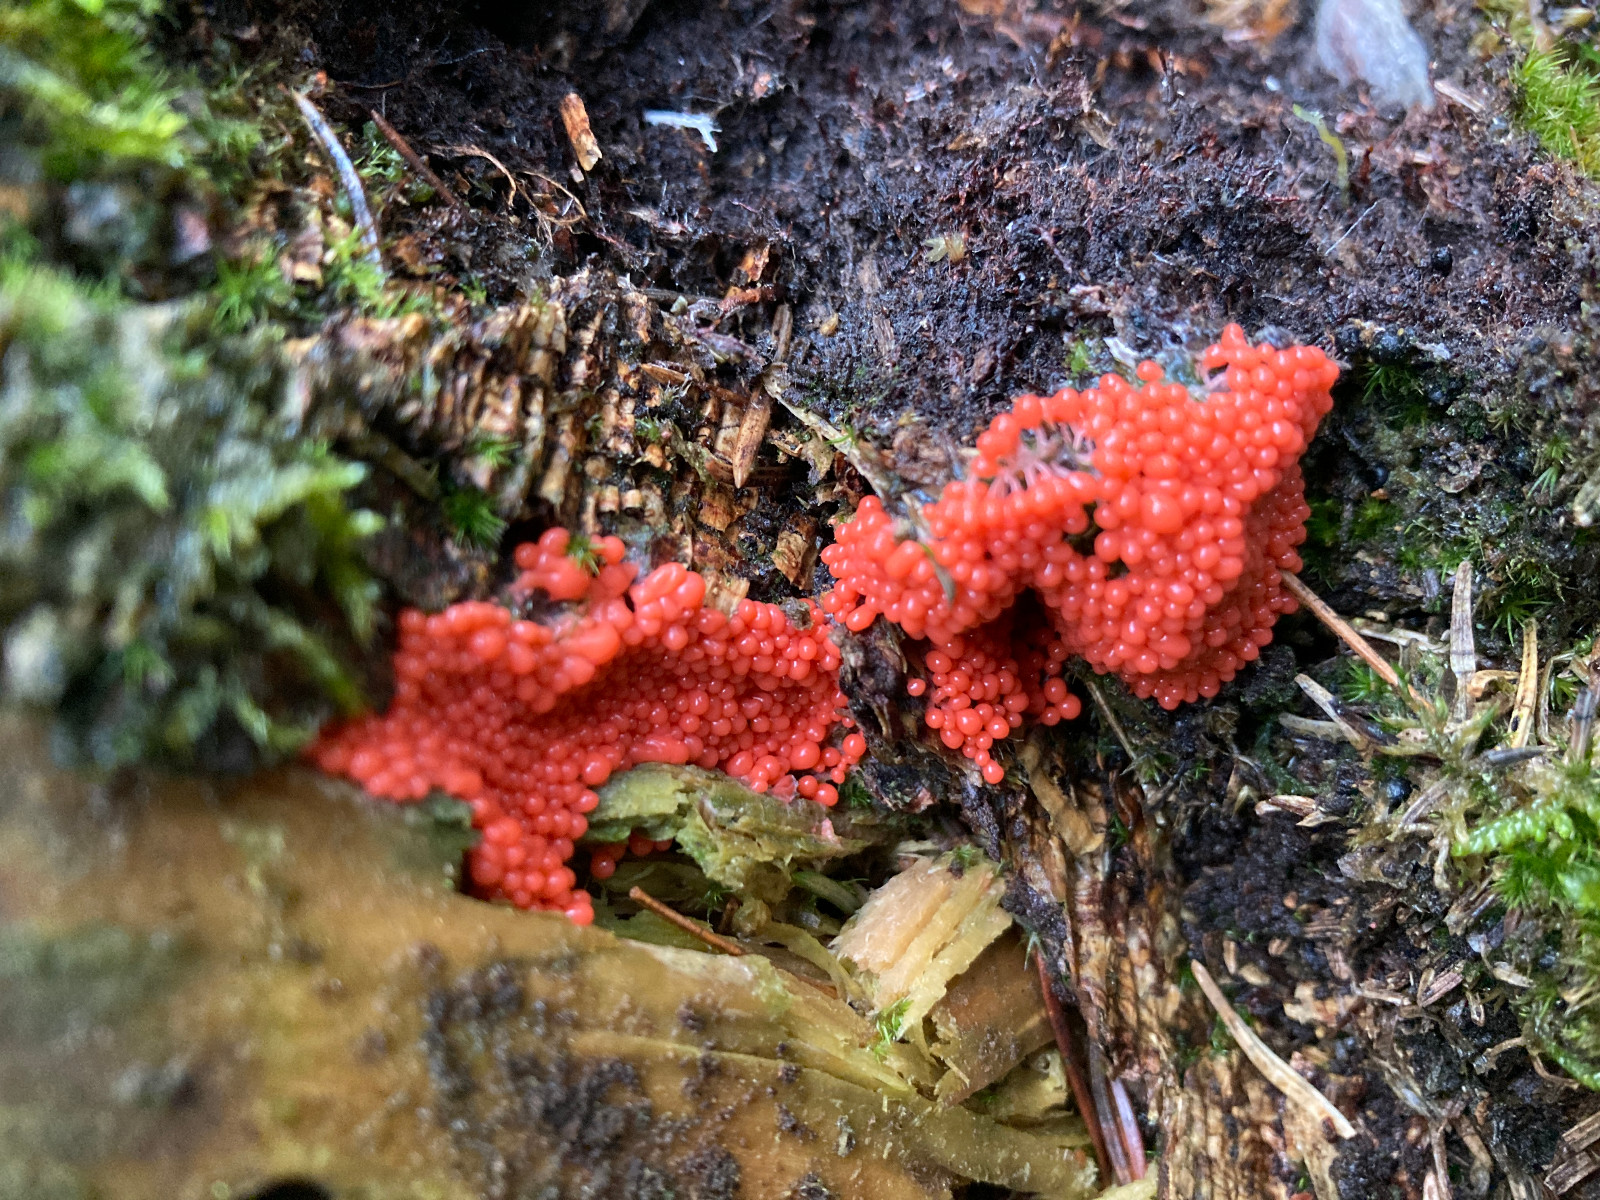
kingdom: Protozoa
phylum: Mycetozoa
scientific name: Mycetozoa
